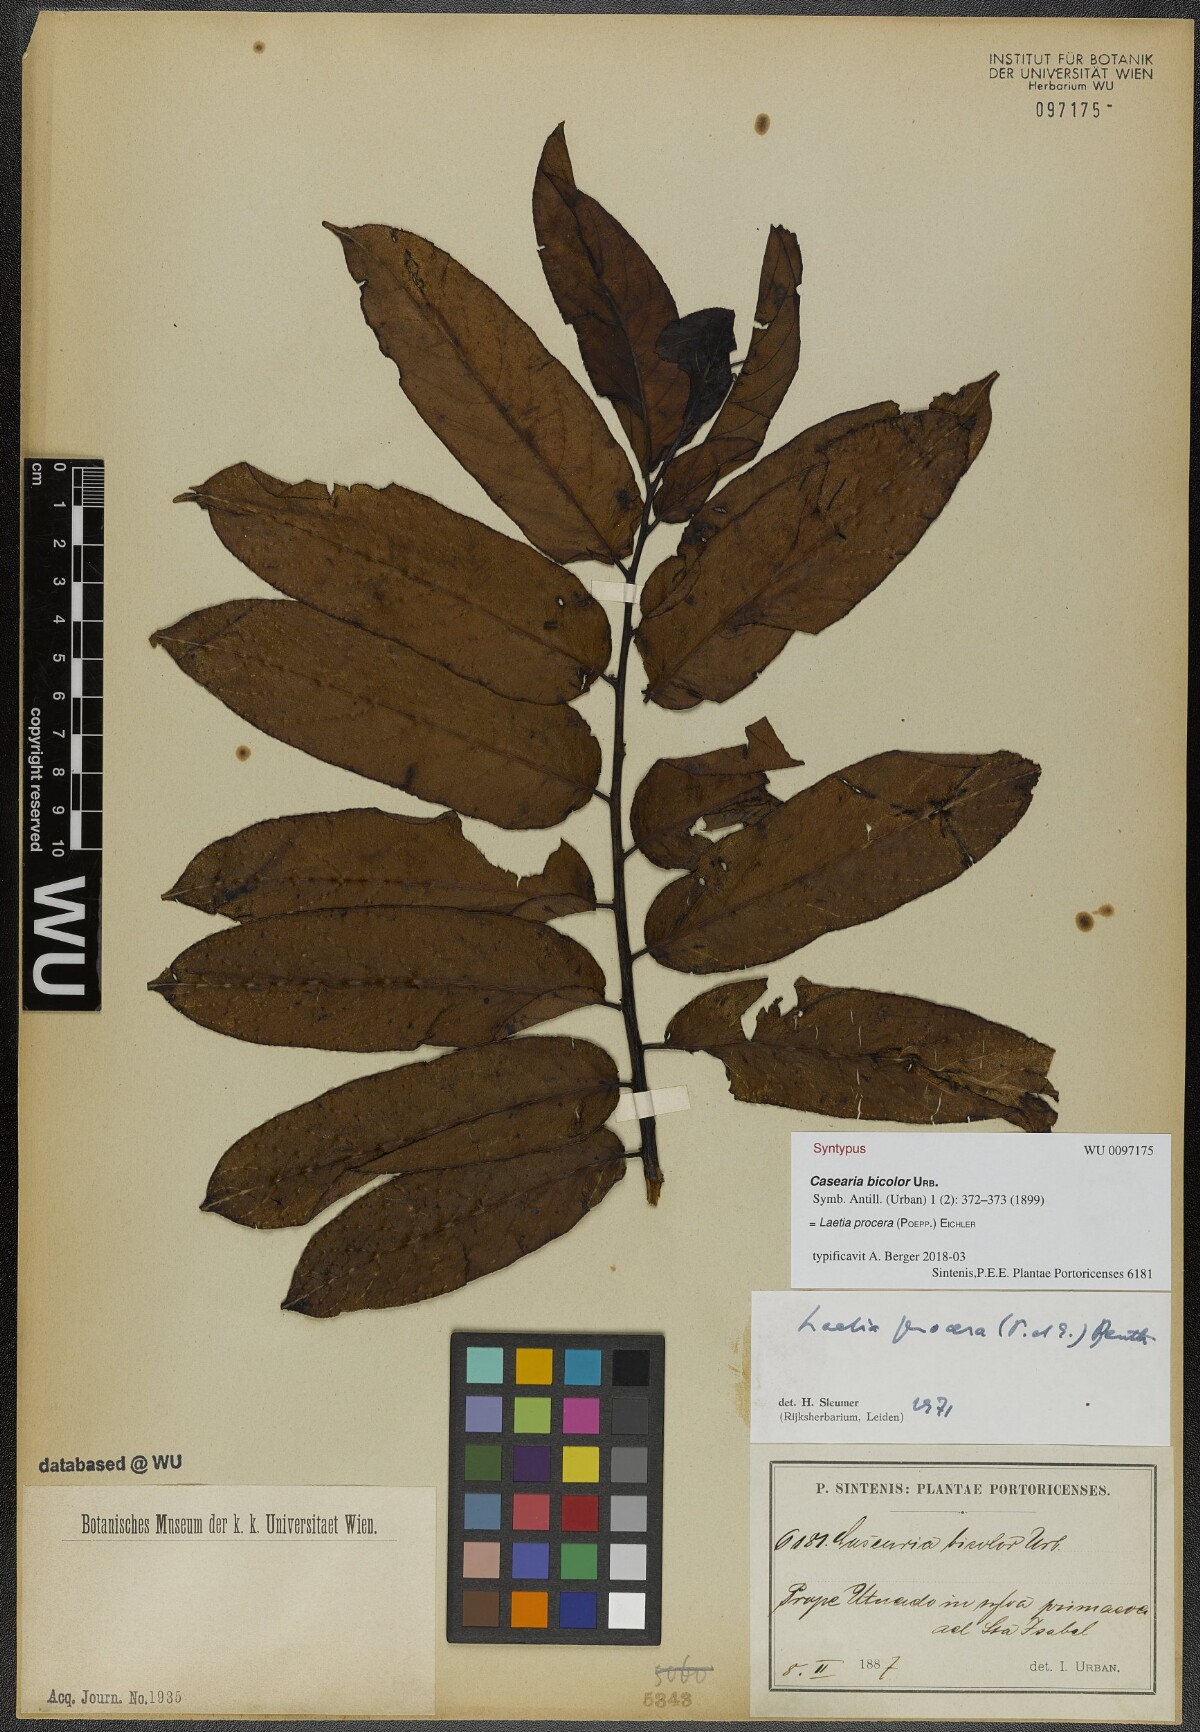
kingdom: Plantae
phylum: Tracheophyta
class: Magnoliopsida
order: Malpighiales
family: Salicaceae
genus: Casearia
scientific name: Casearia bicolor
